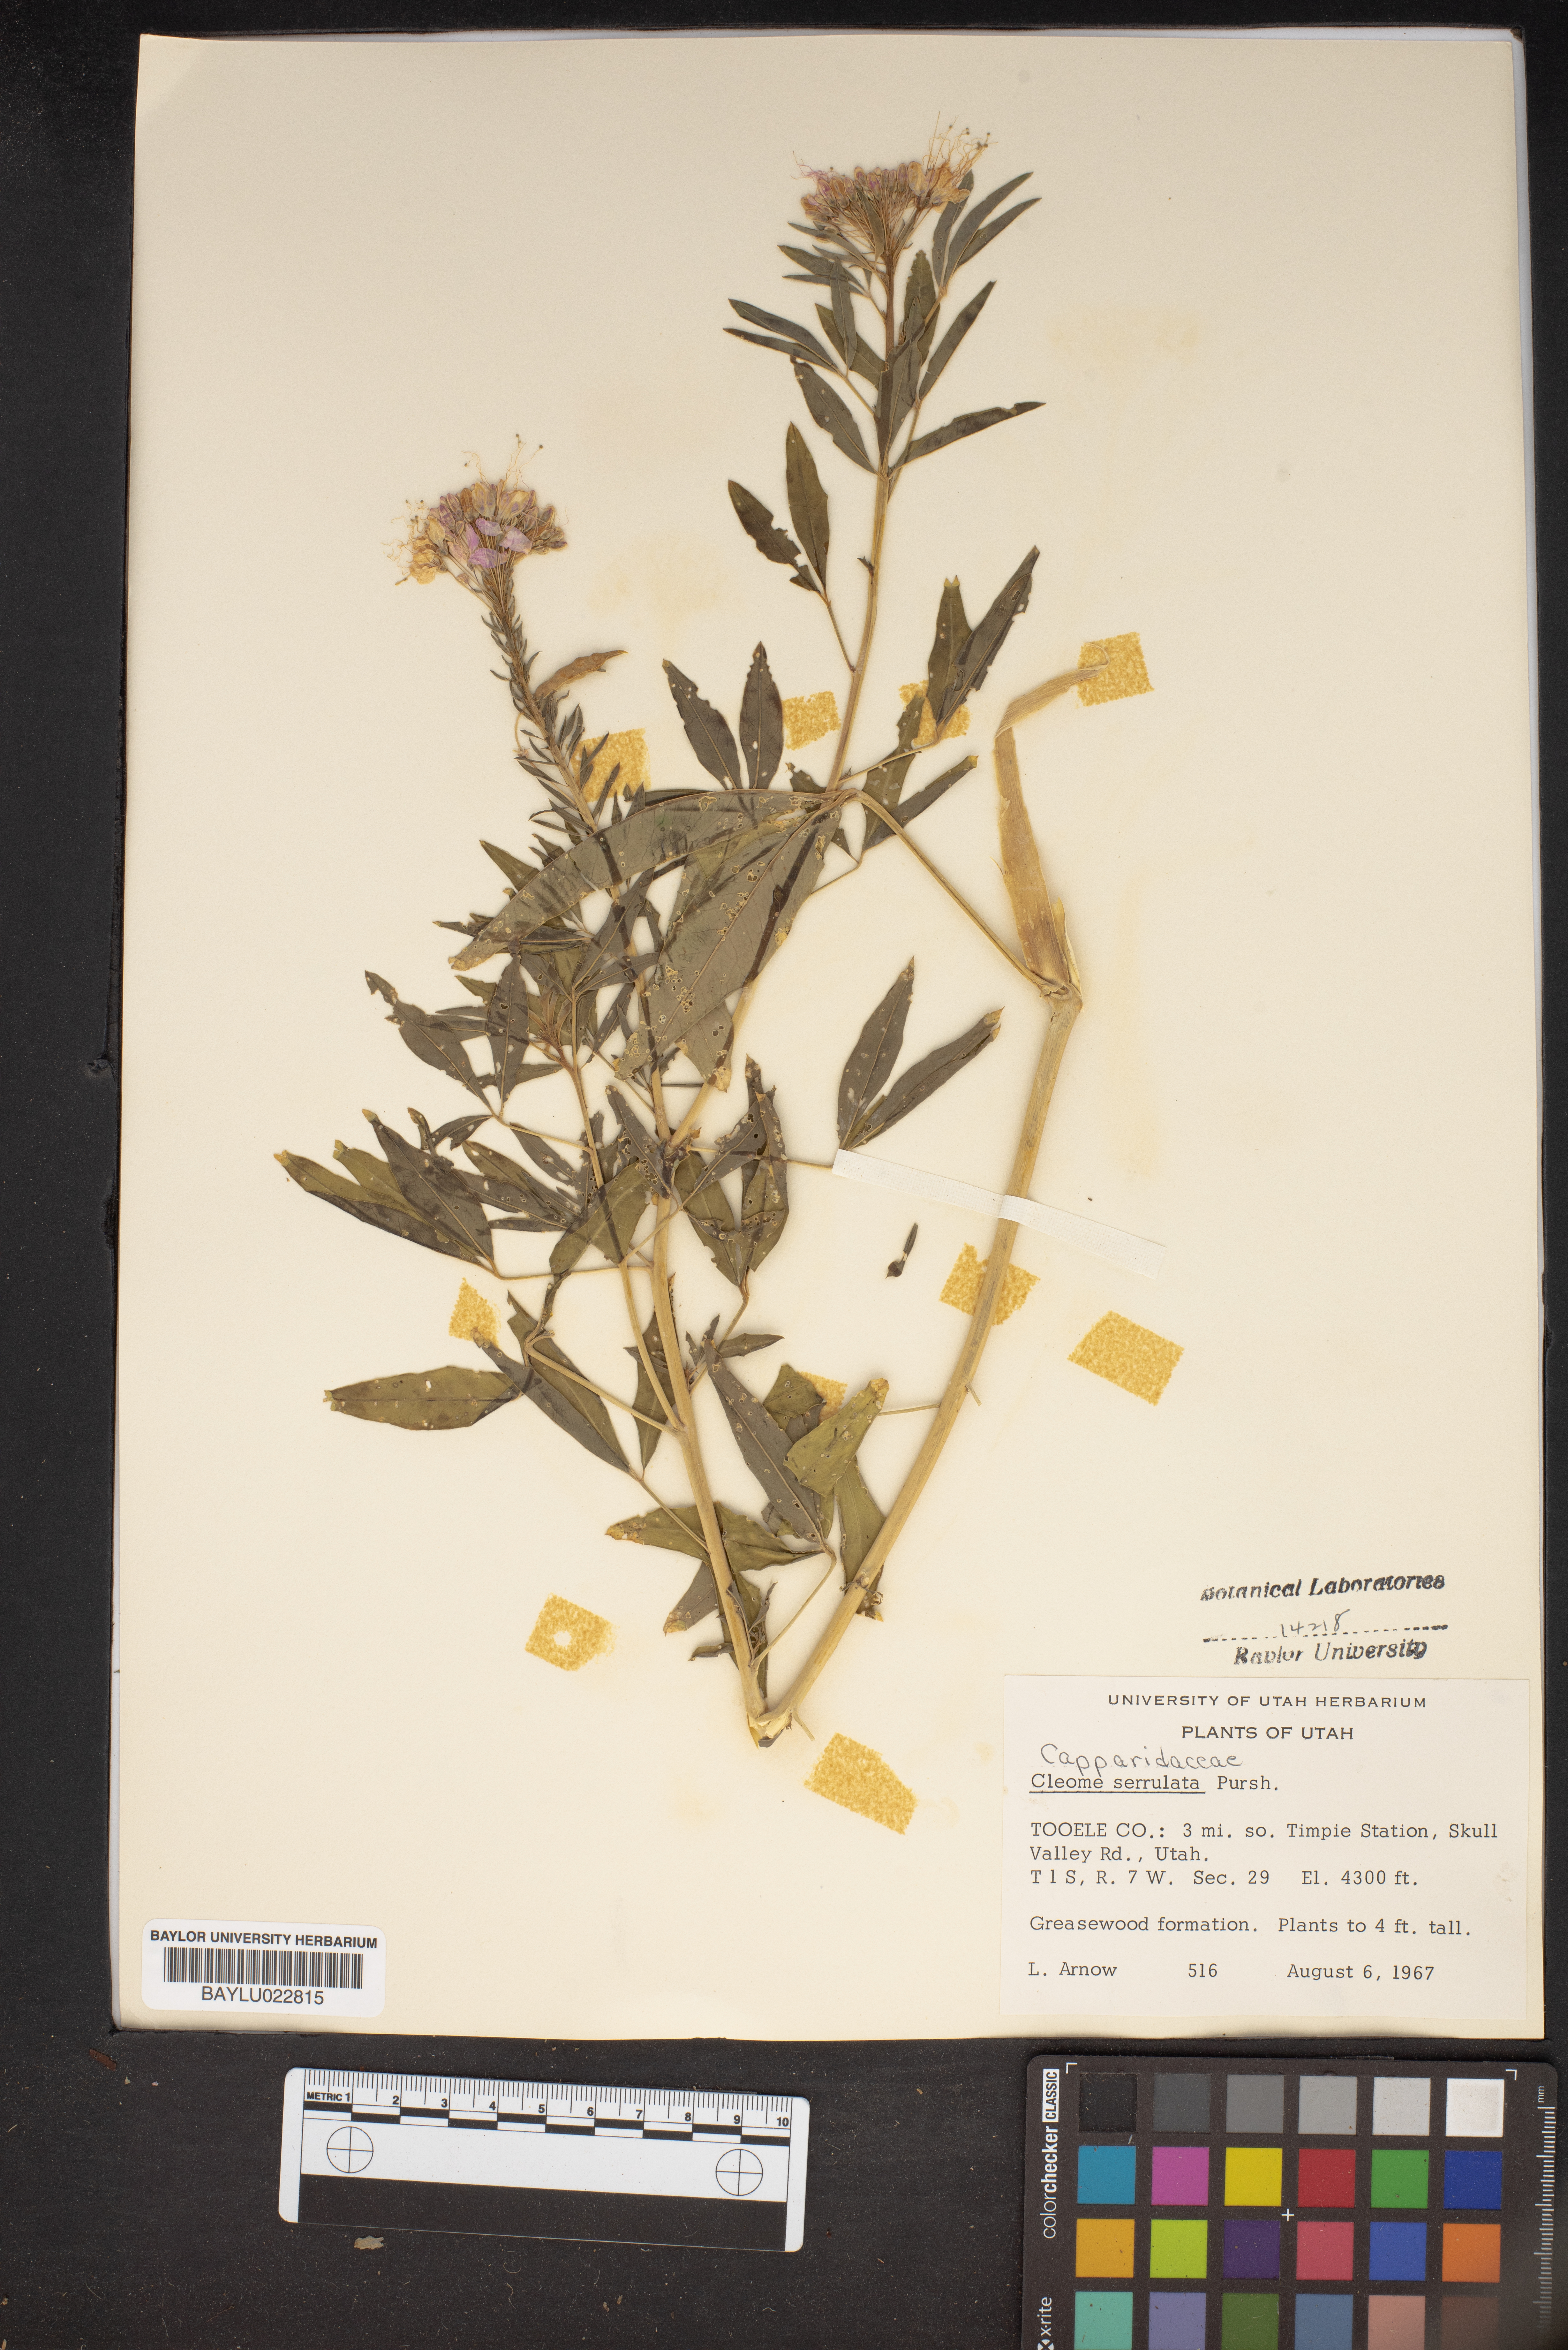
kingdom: Plantae
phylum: Tracheophyta
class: Magnoliopsida
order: Brassicales
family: Cleomaceae
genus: Cleomella
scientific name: Cleomella serrulata
